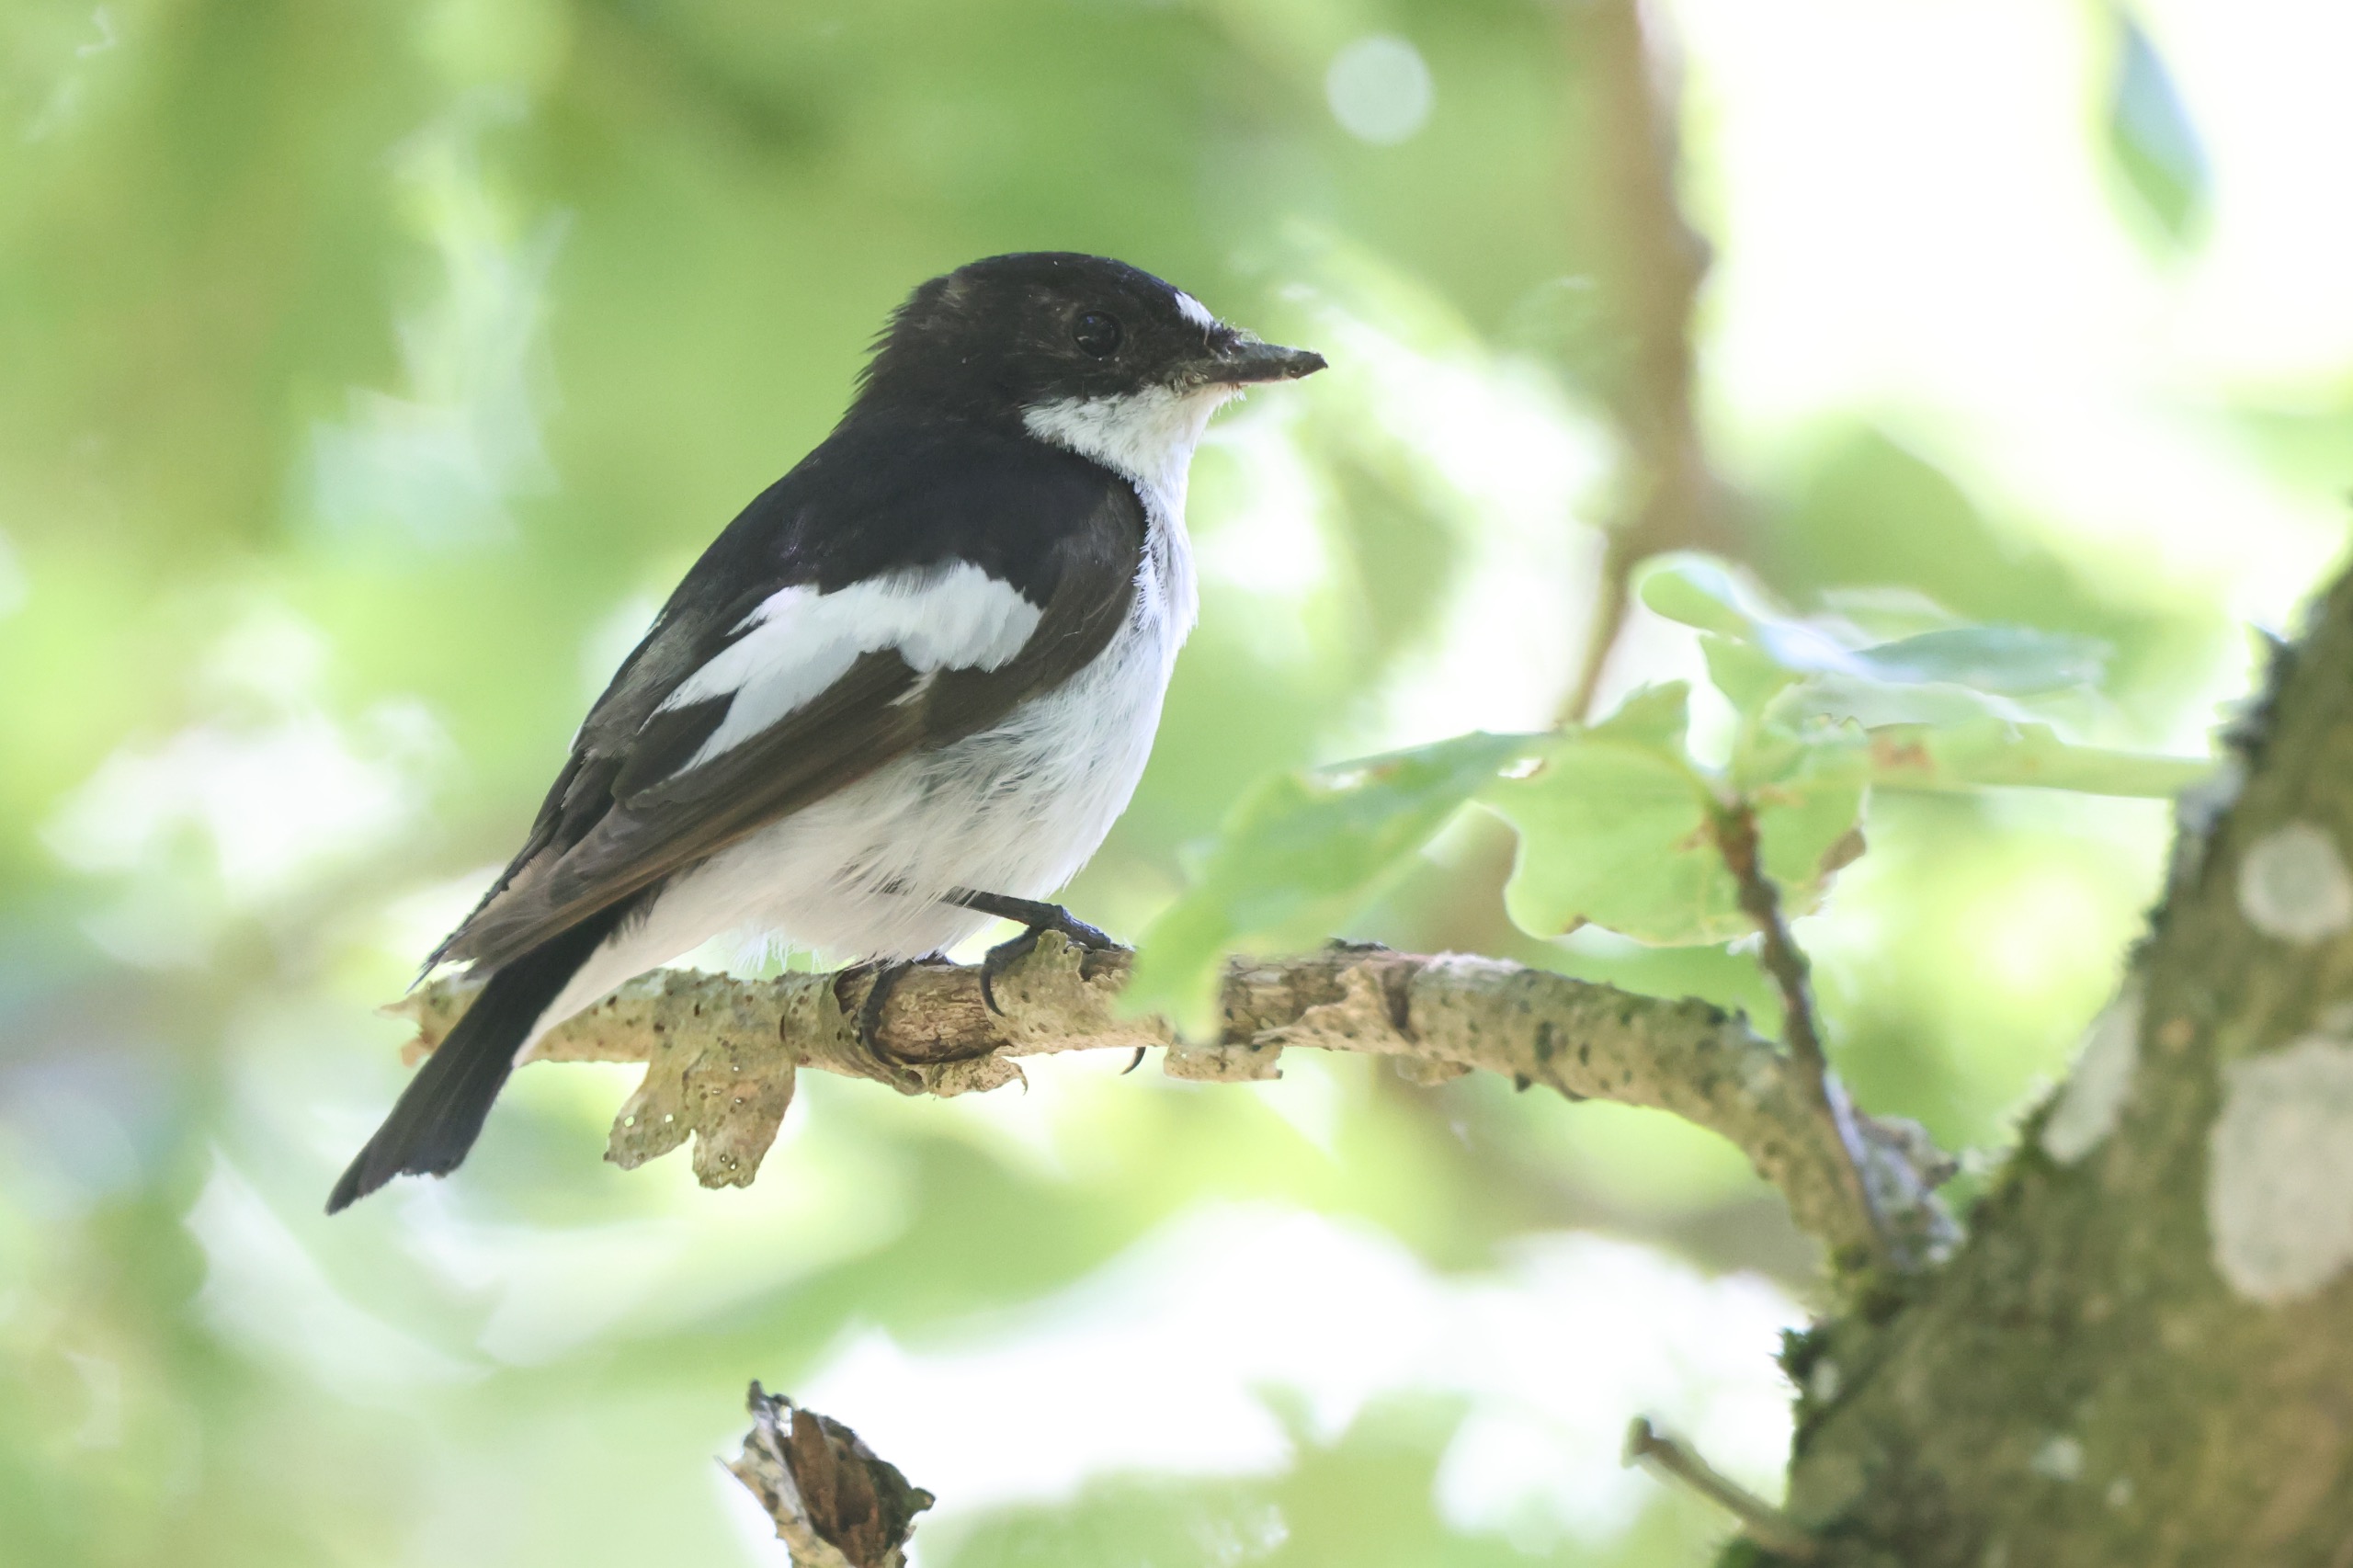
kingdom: Animalia
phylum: Chordata
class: Aves
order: Passeriformes
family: Muscicapidae
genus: Ficedula
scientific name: Ficedula hypoleuca
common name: Broget fluesnapper
